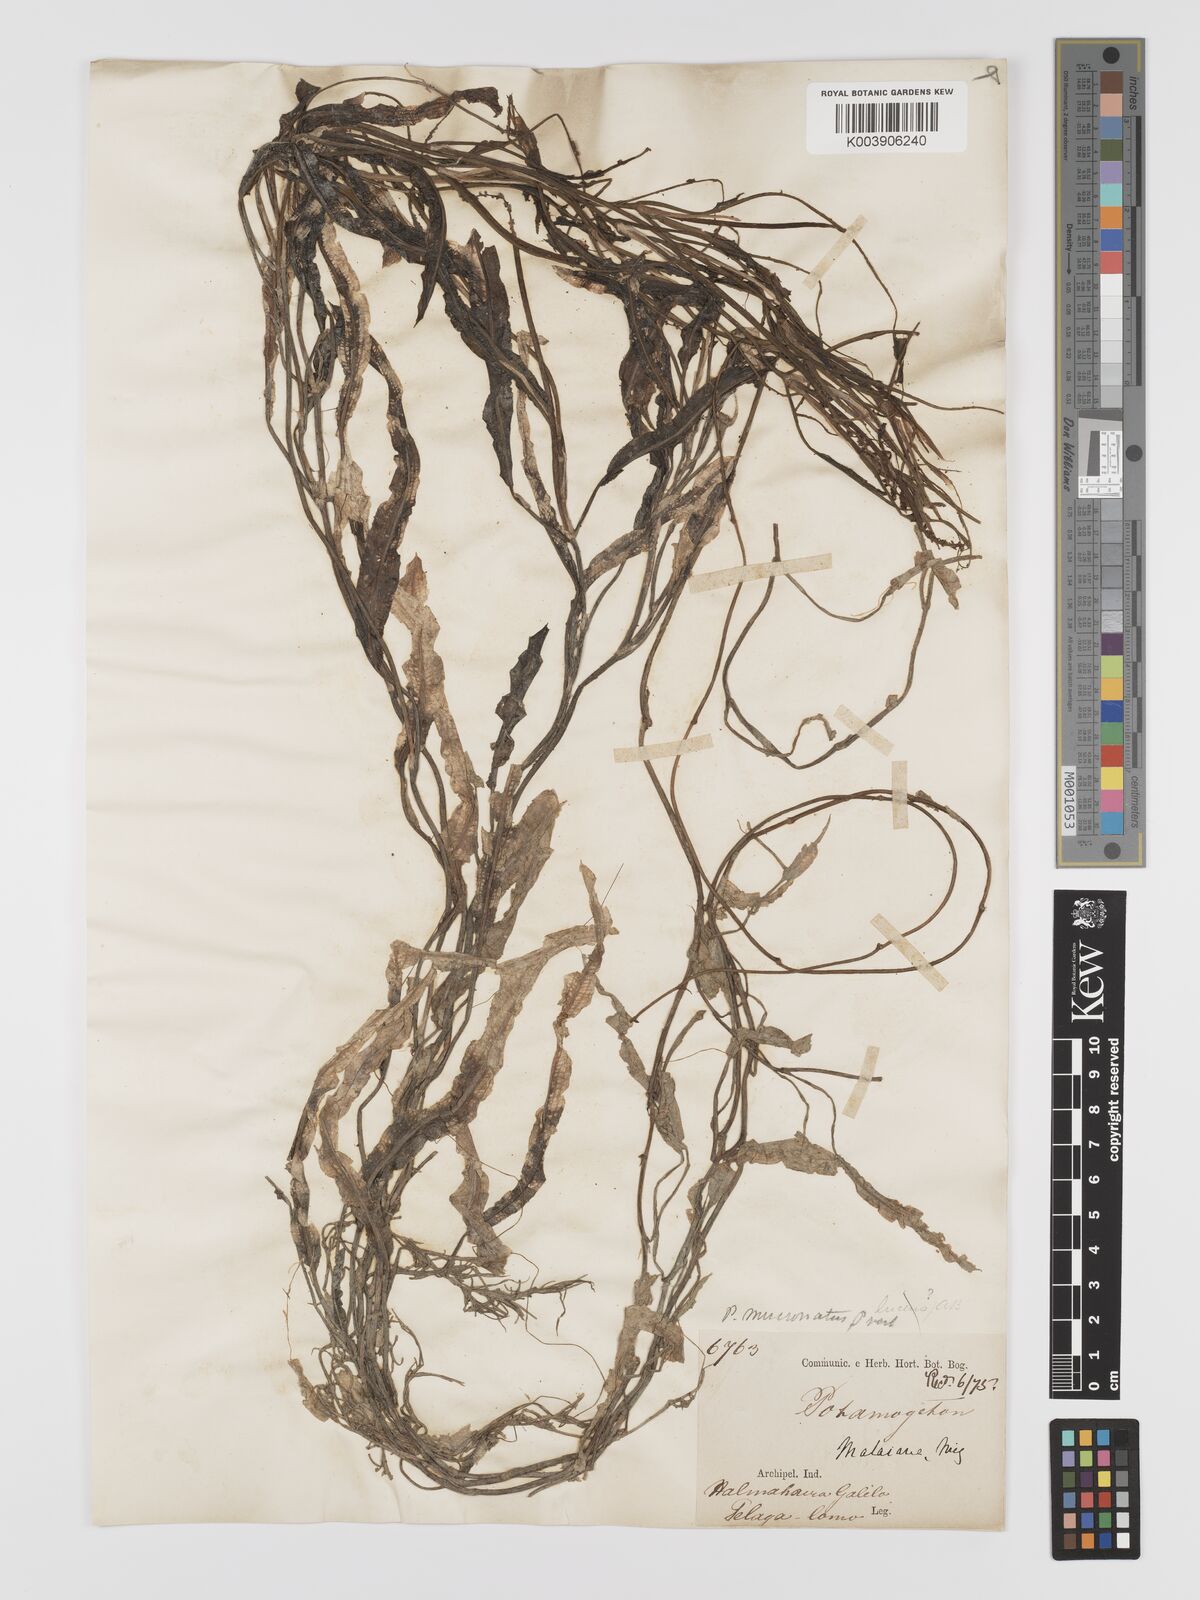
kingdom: Plantae
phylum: Tracheophyta
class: Liliopsida
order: Alismatales
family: Potamogetonaceae
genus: Potamogeton
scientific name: Potamogeton wrightii
